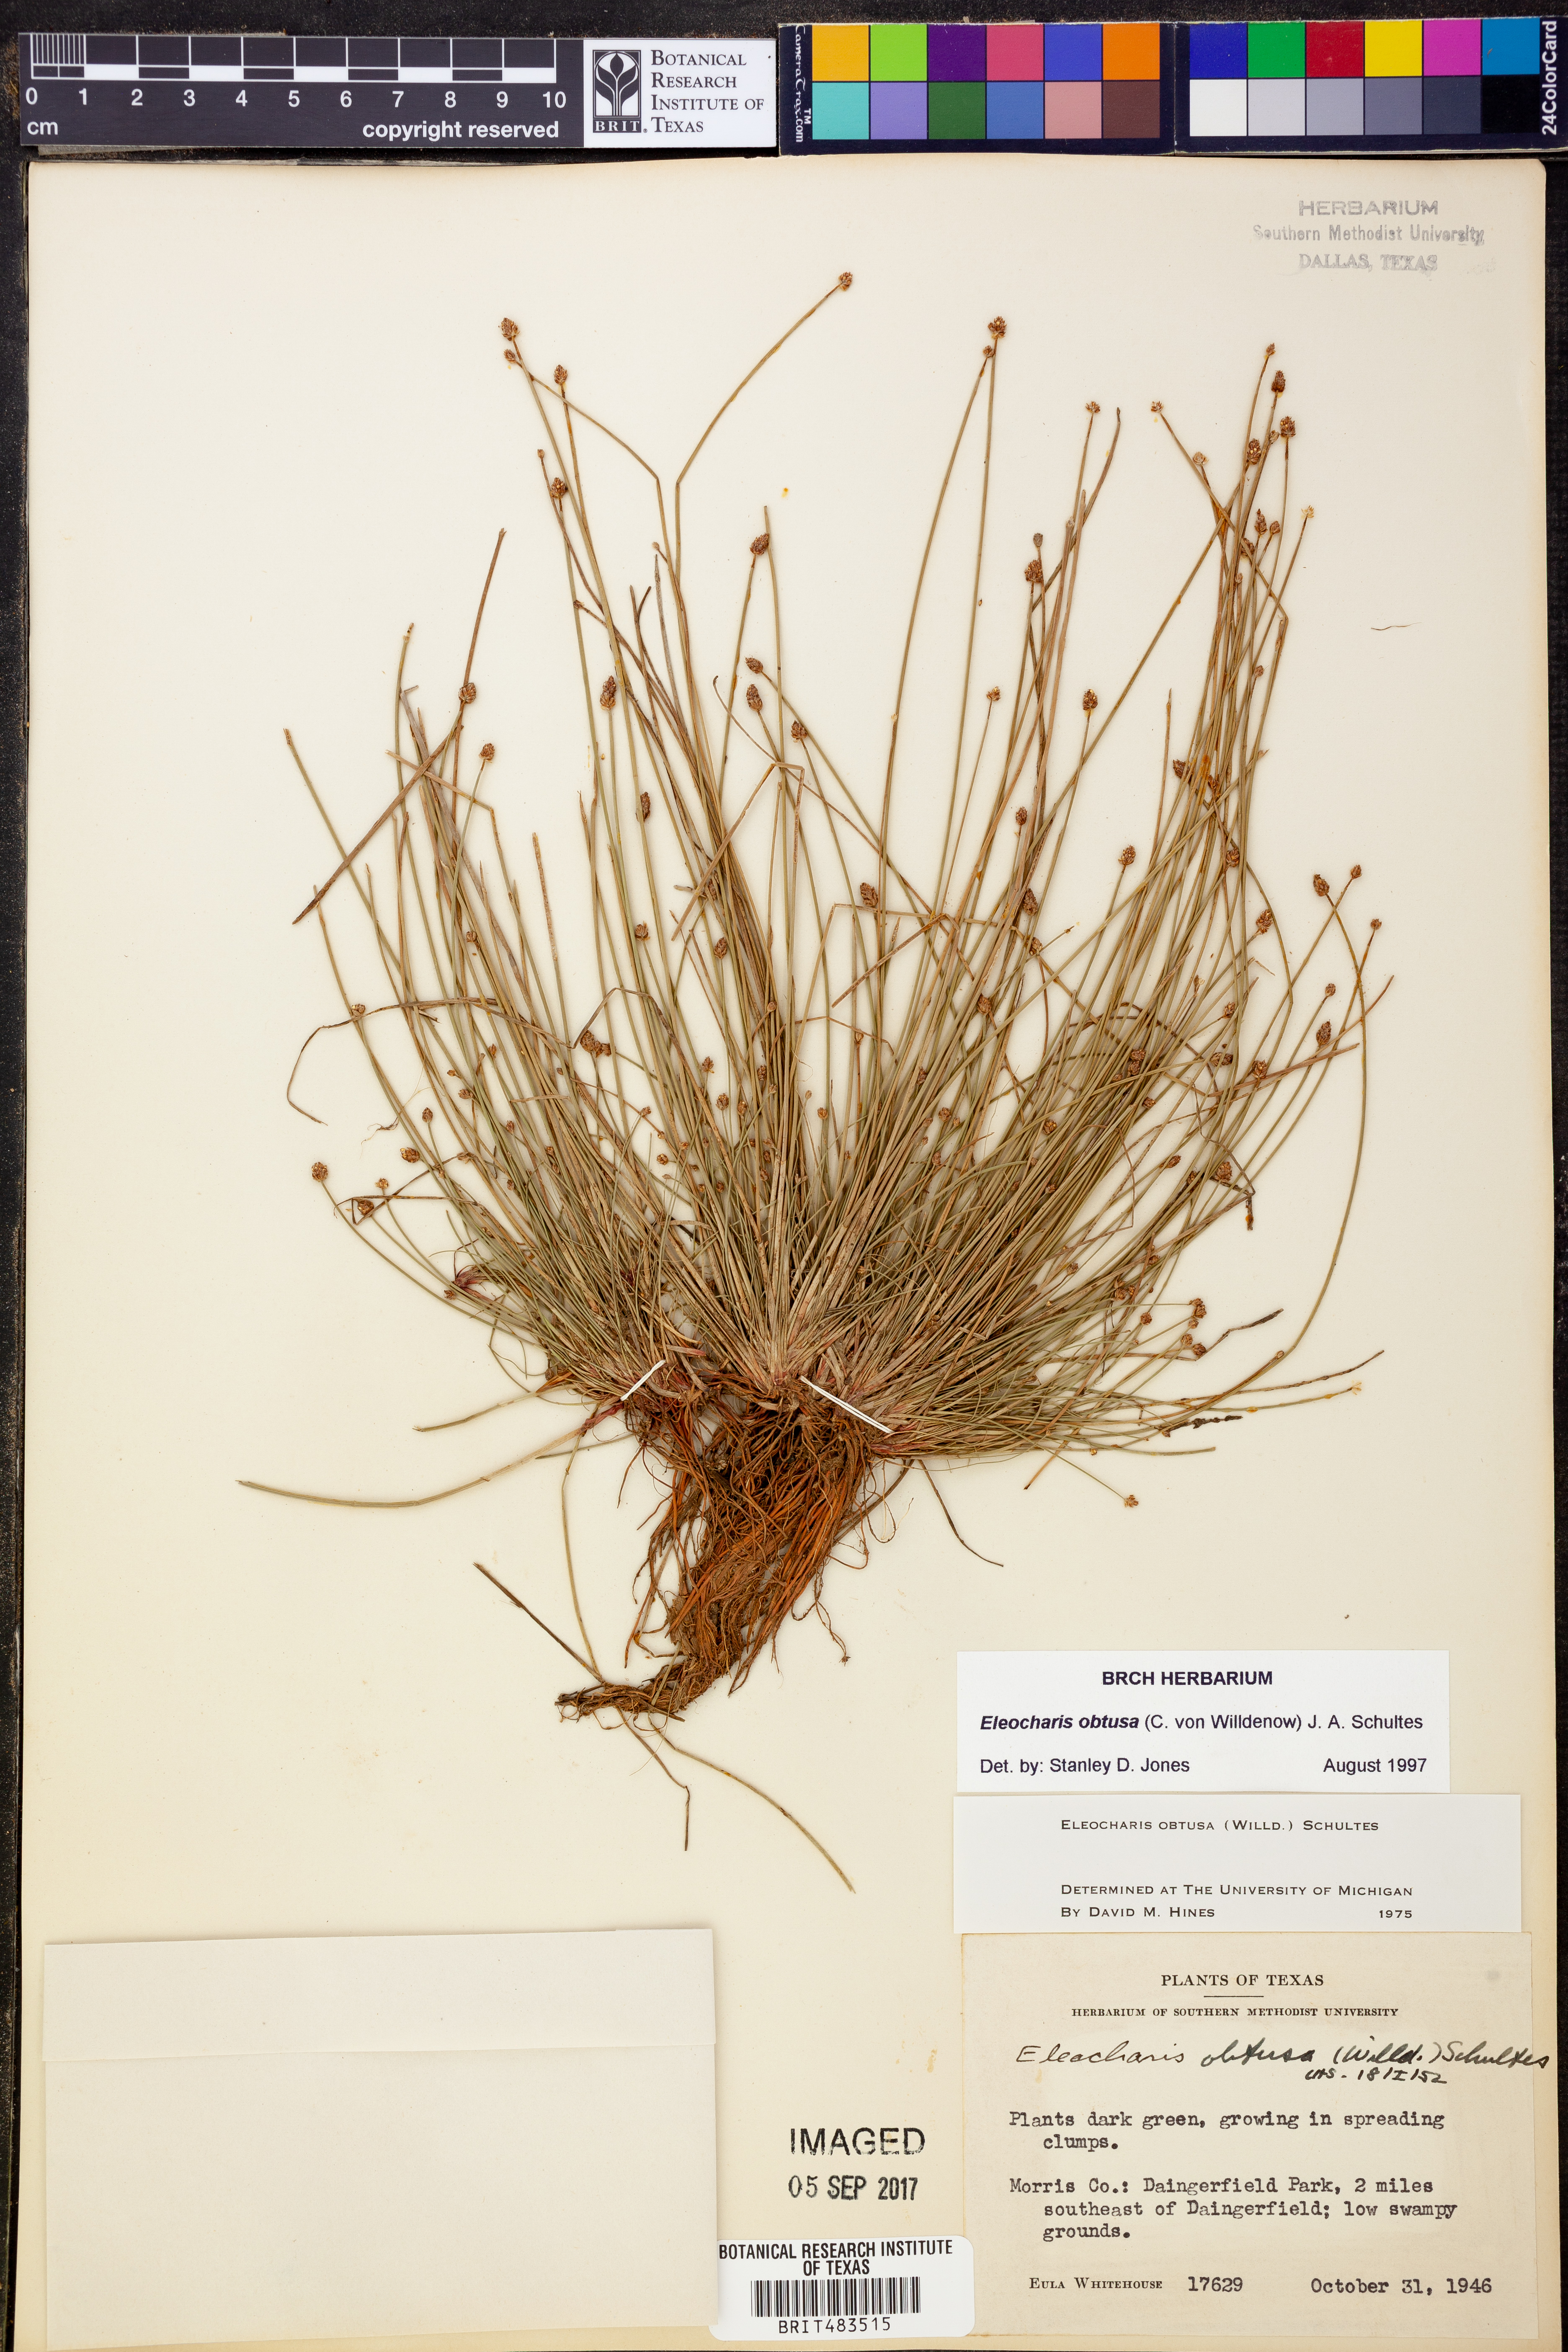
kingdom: Plantae
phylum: Tracheophyta
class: Liliopsida
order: Poales
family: Cyperaceae
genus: Eleocharis
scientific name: Eleocharis obtusa
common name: Blunt spikerush
